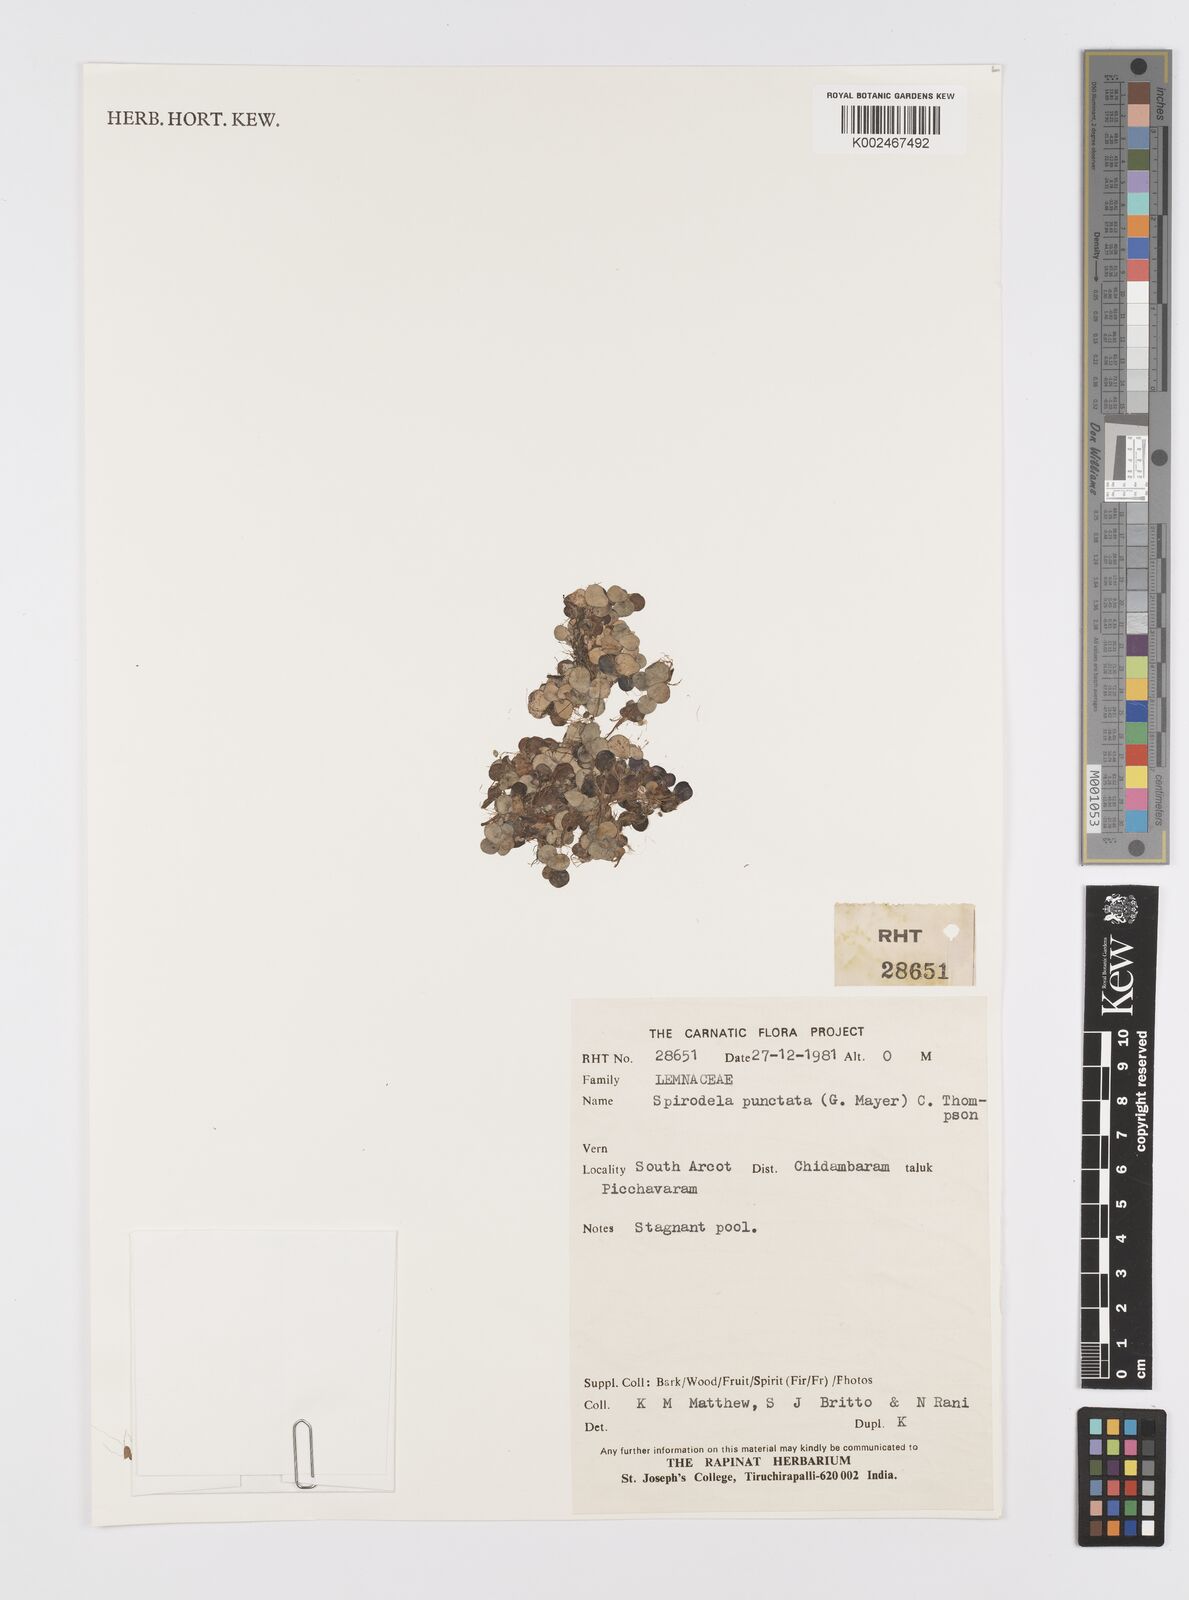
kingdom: Plantae
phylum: Tracheophyta
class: Liliopsida
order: Alismatales
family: Araceae
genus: Spirodela
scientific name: Spirodela punctata
